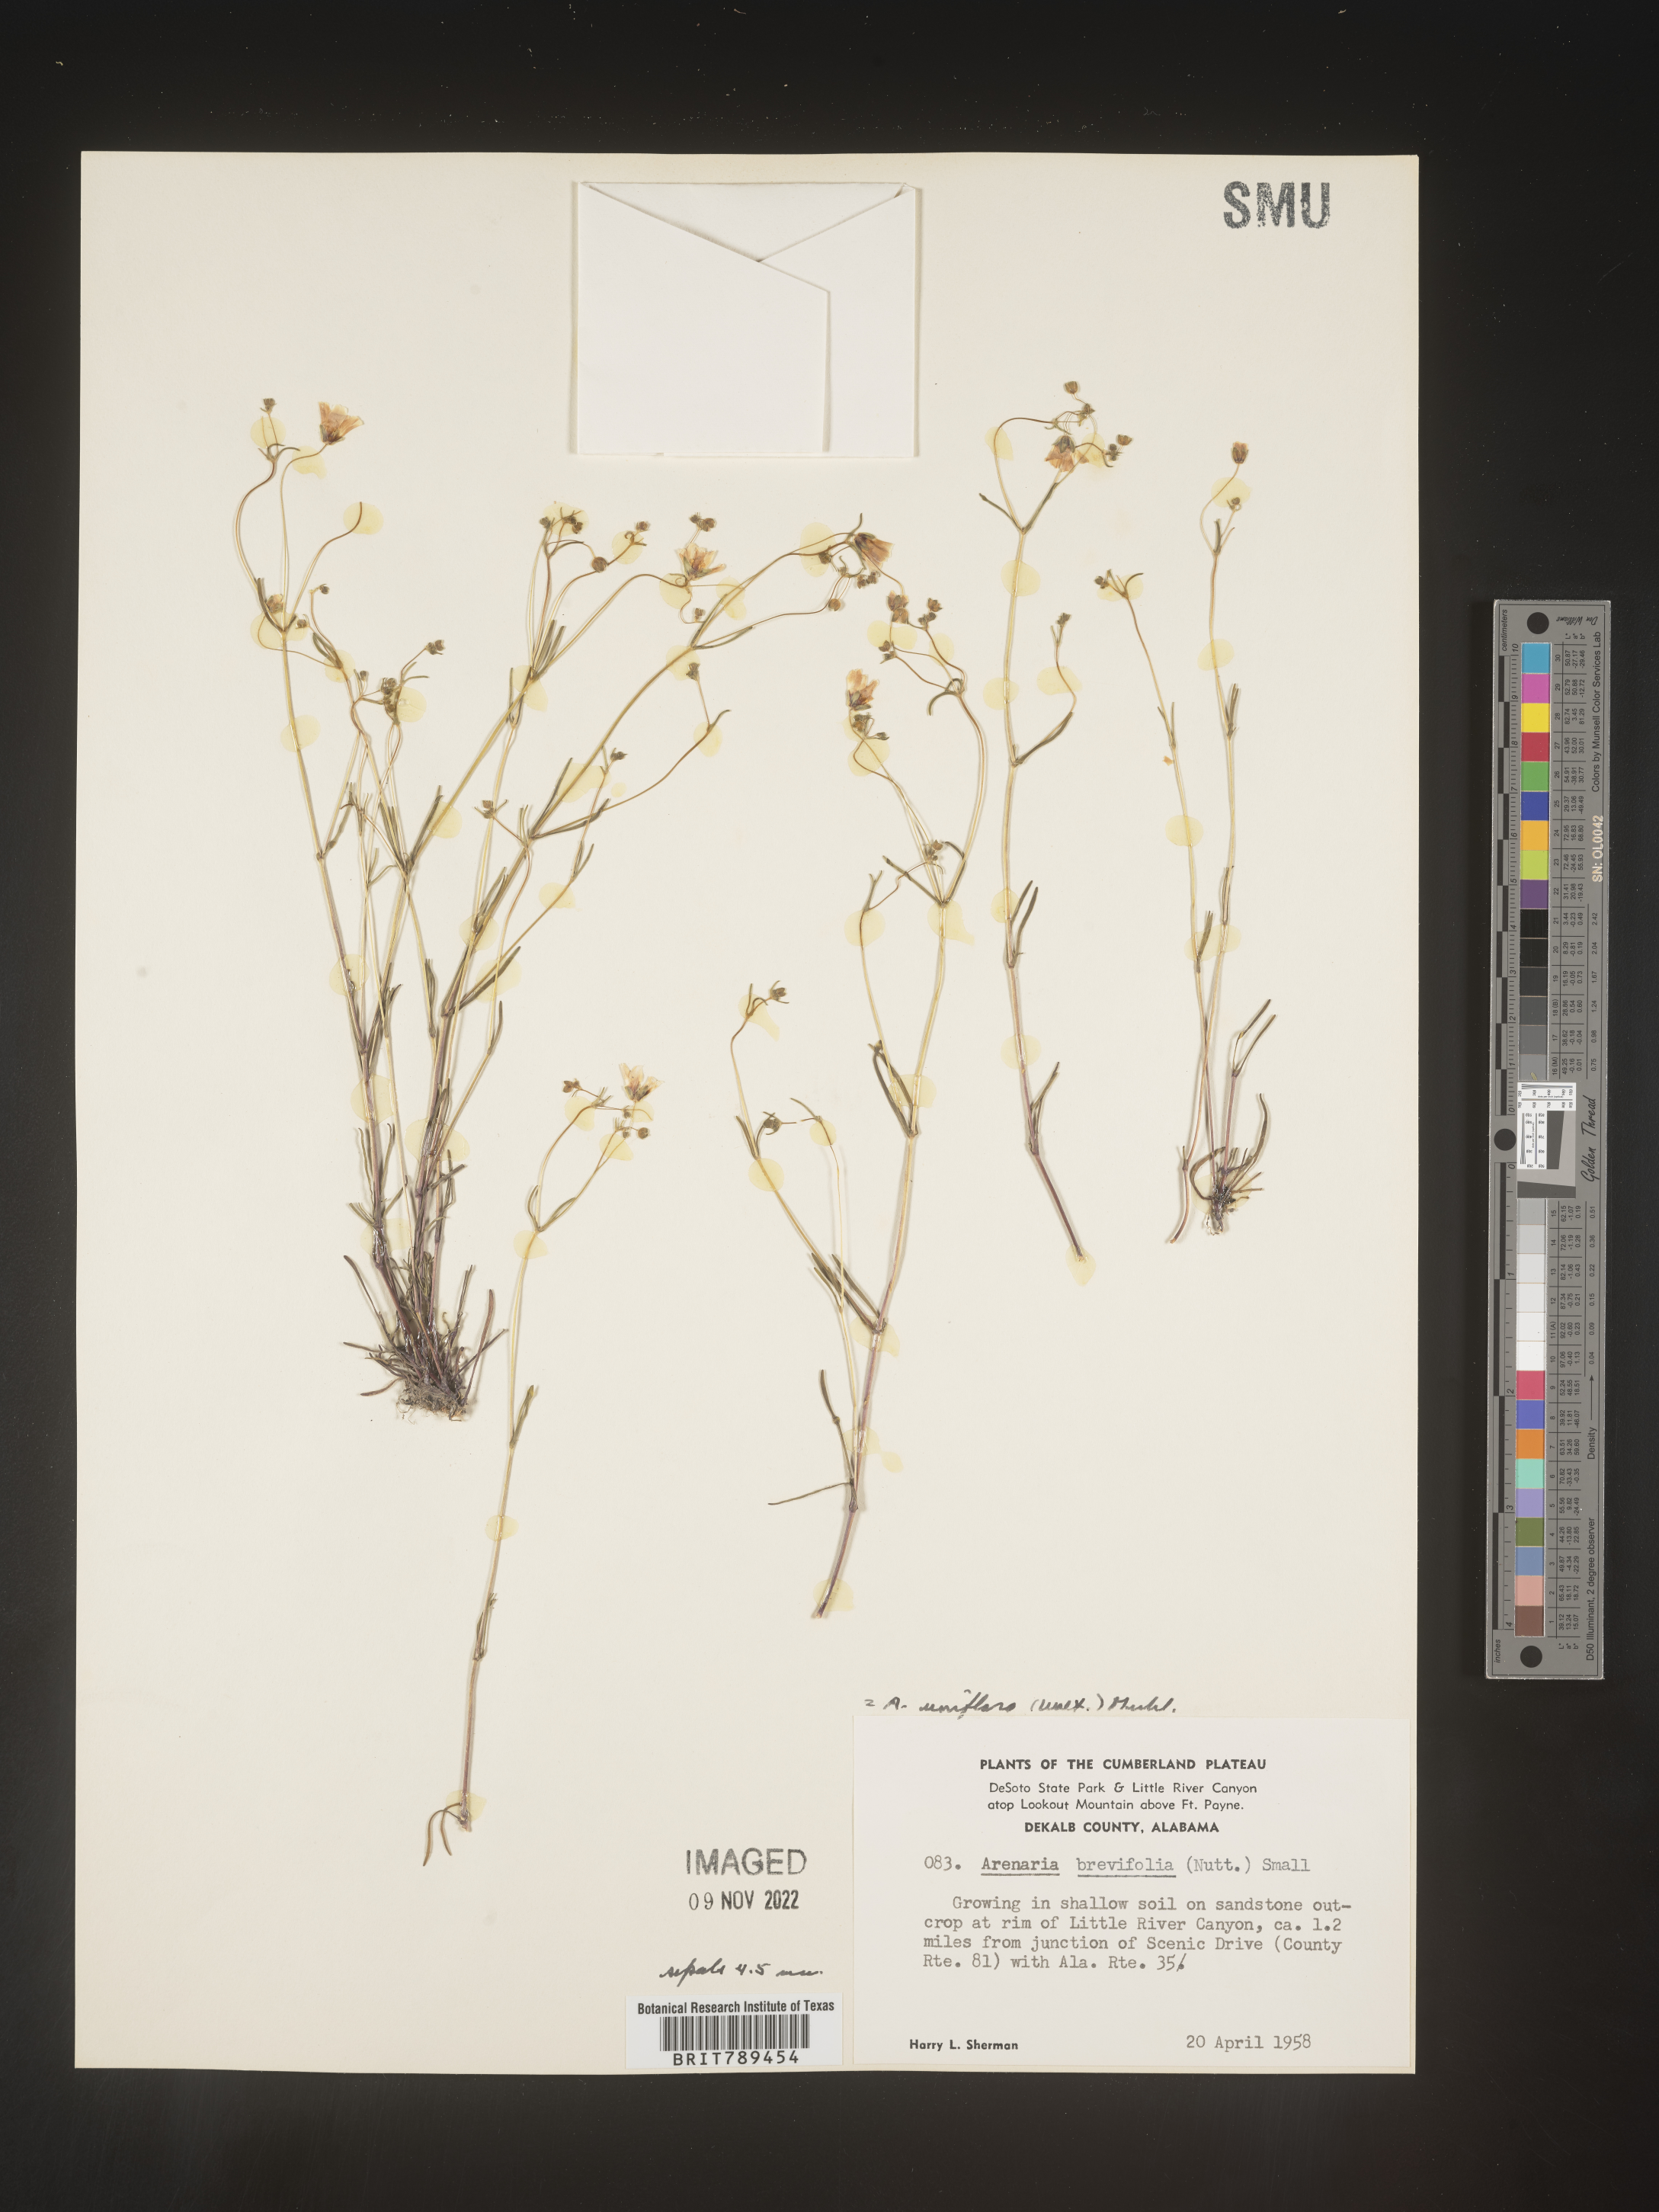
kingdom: Plantae
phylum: Tracheophyta
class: Magnoliopsida
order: Caryophyllales
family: Caryophyllaceae
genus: Arenaria
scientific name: Arenaria
